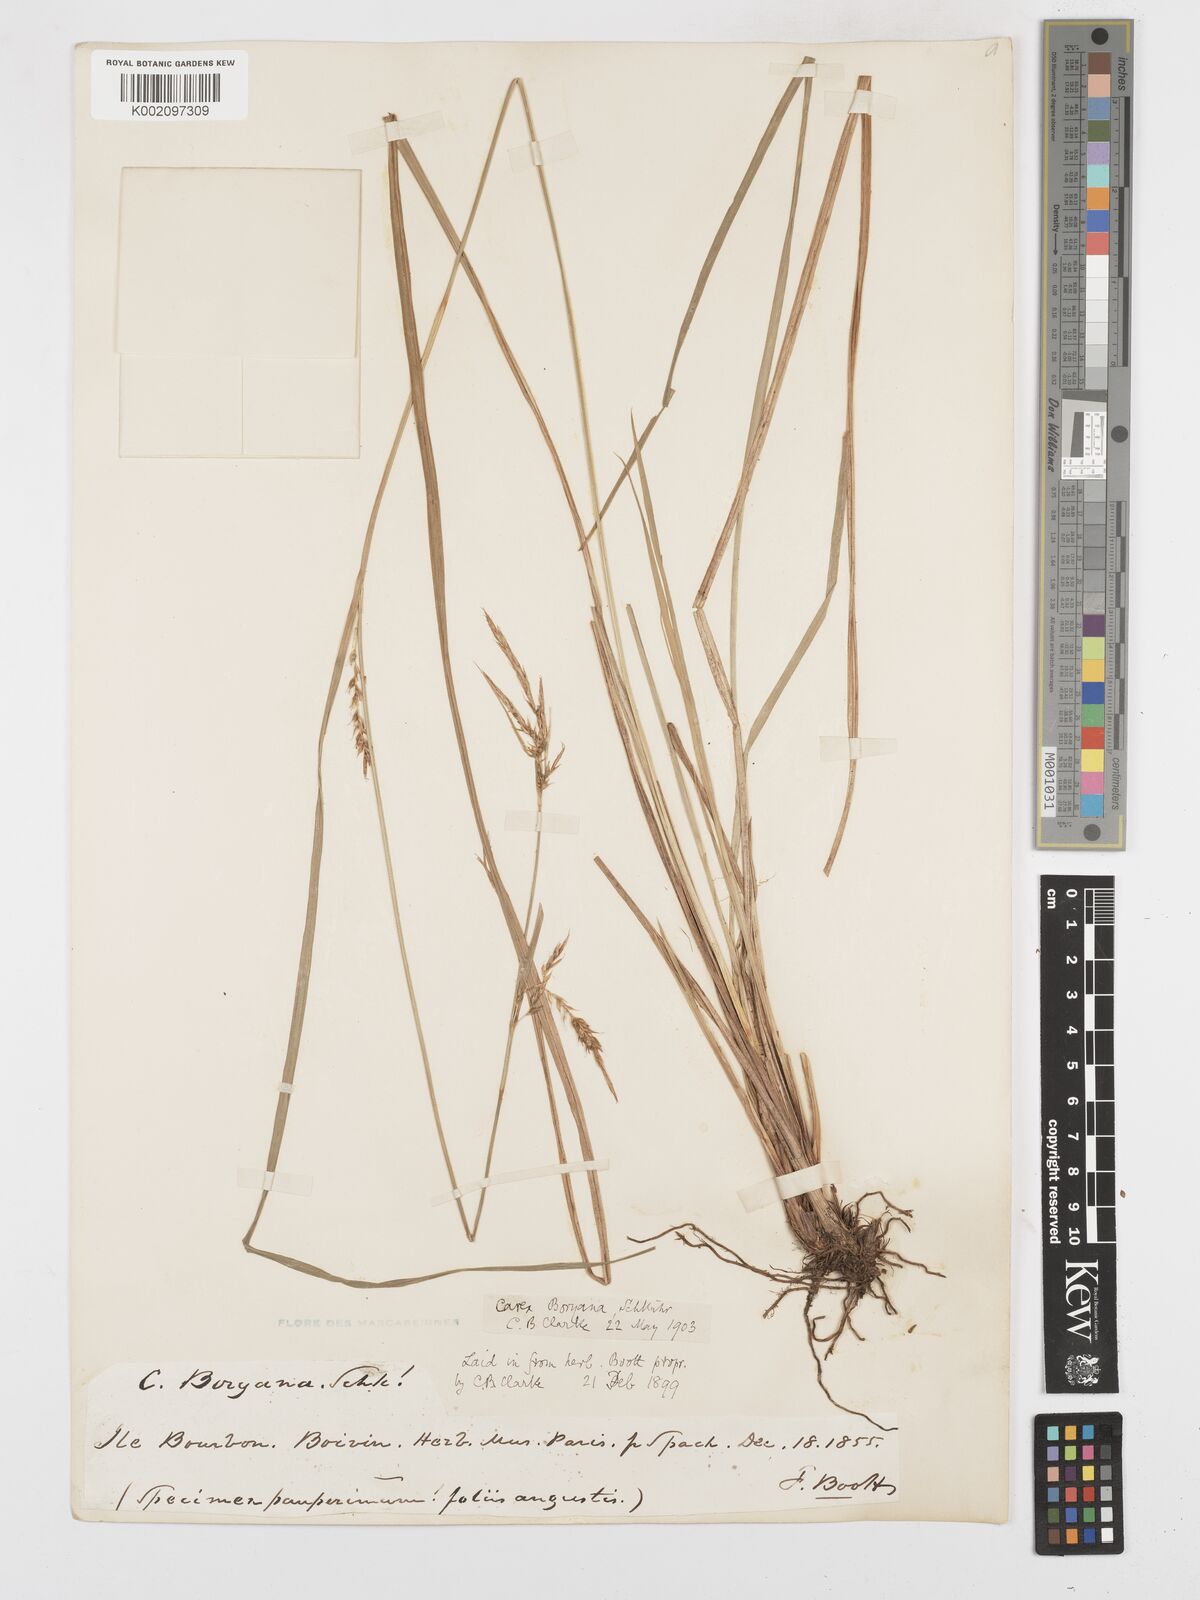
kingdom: Plantae
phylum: Tracheophyta
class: Liliopsida
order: Poales
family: Cyperaceae
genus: Carex
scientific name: Carex boryana
